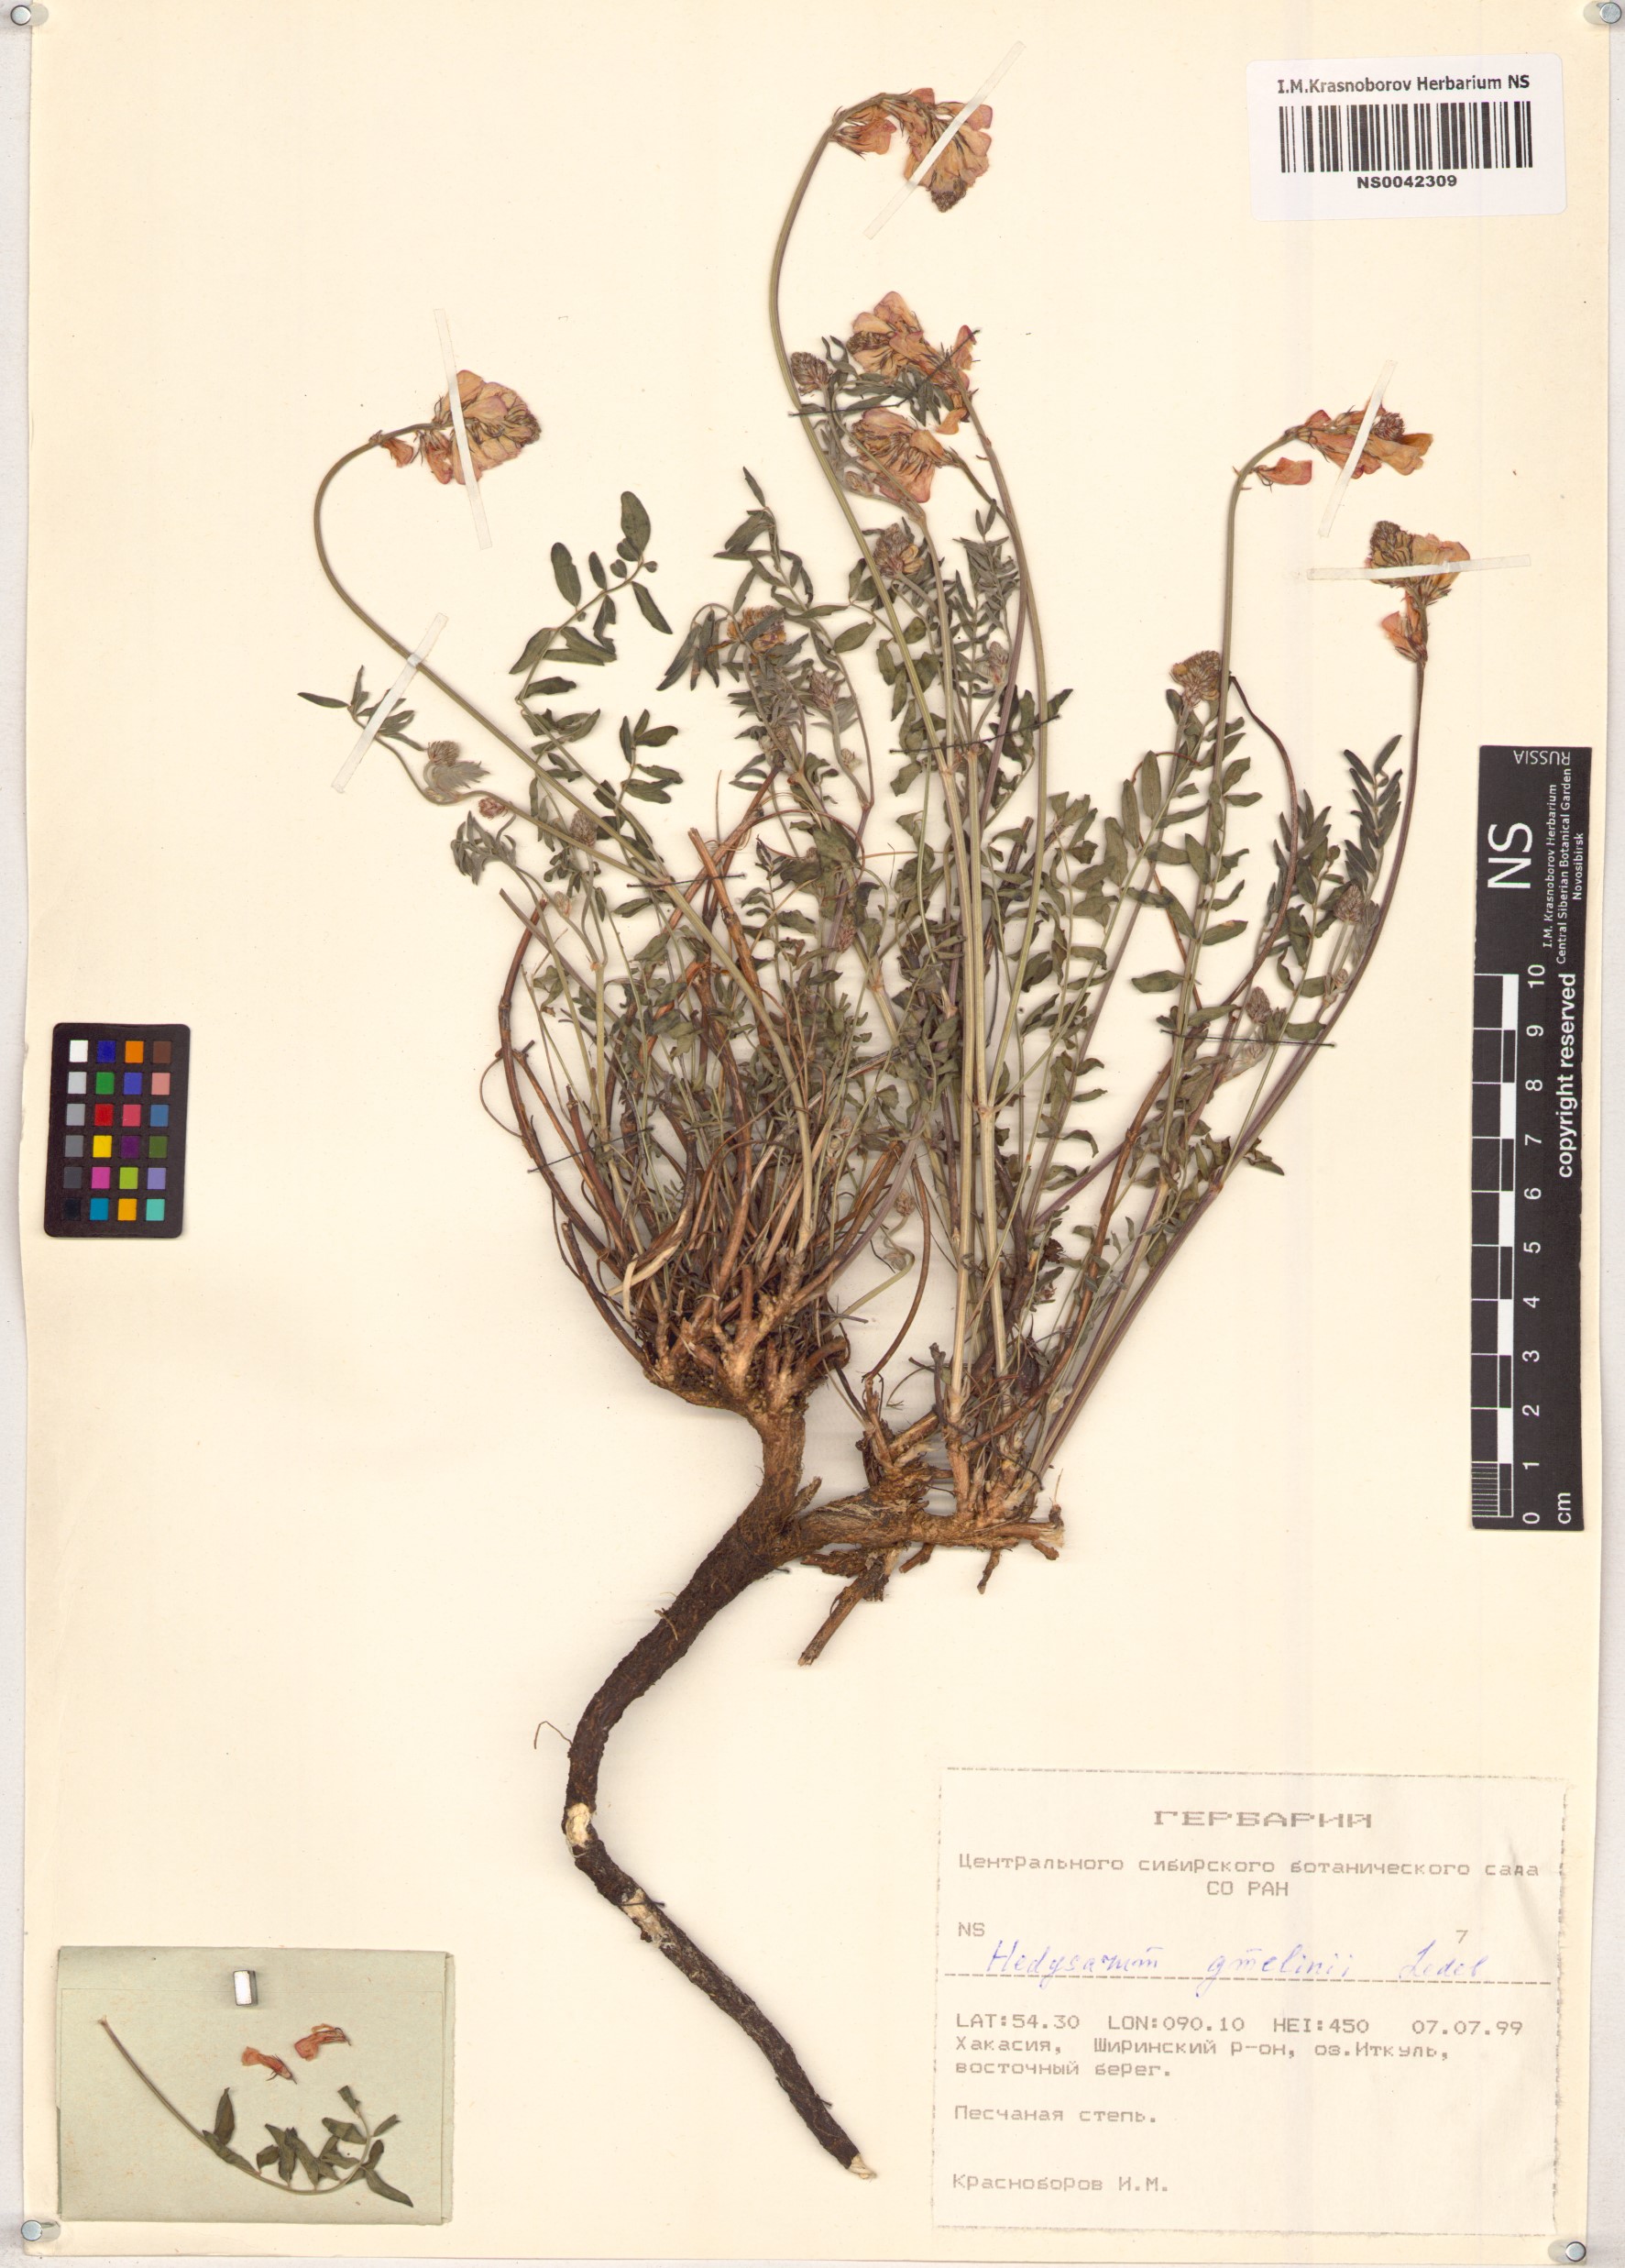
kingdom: Plantae
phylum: Tracheophyta
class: Magnoliopsida
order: Fabales
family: Fabaceae
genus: Hedysarum
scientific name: Hedysarum gmelinii
